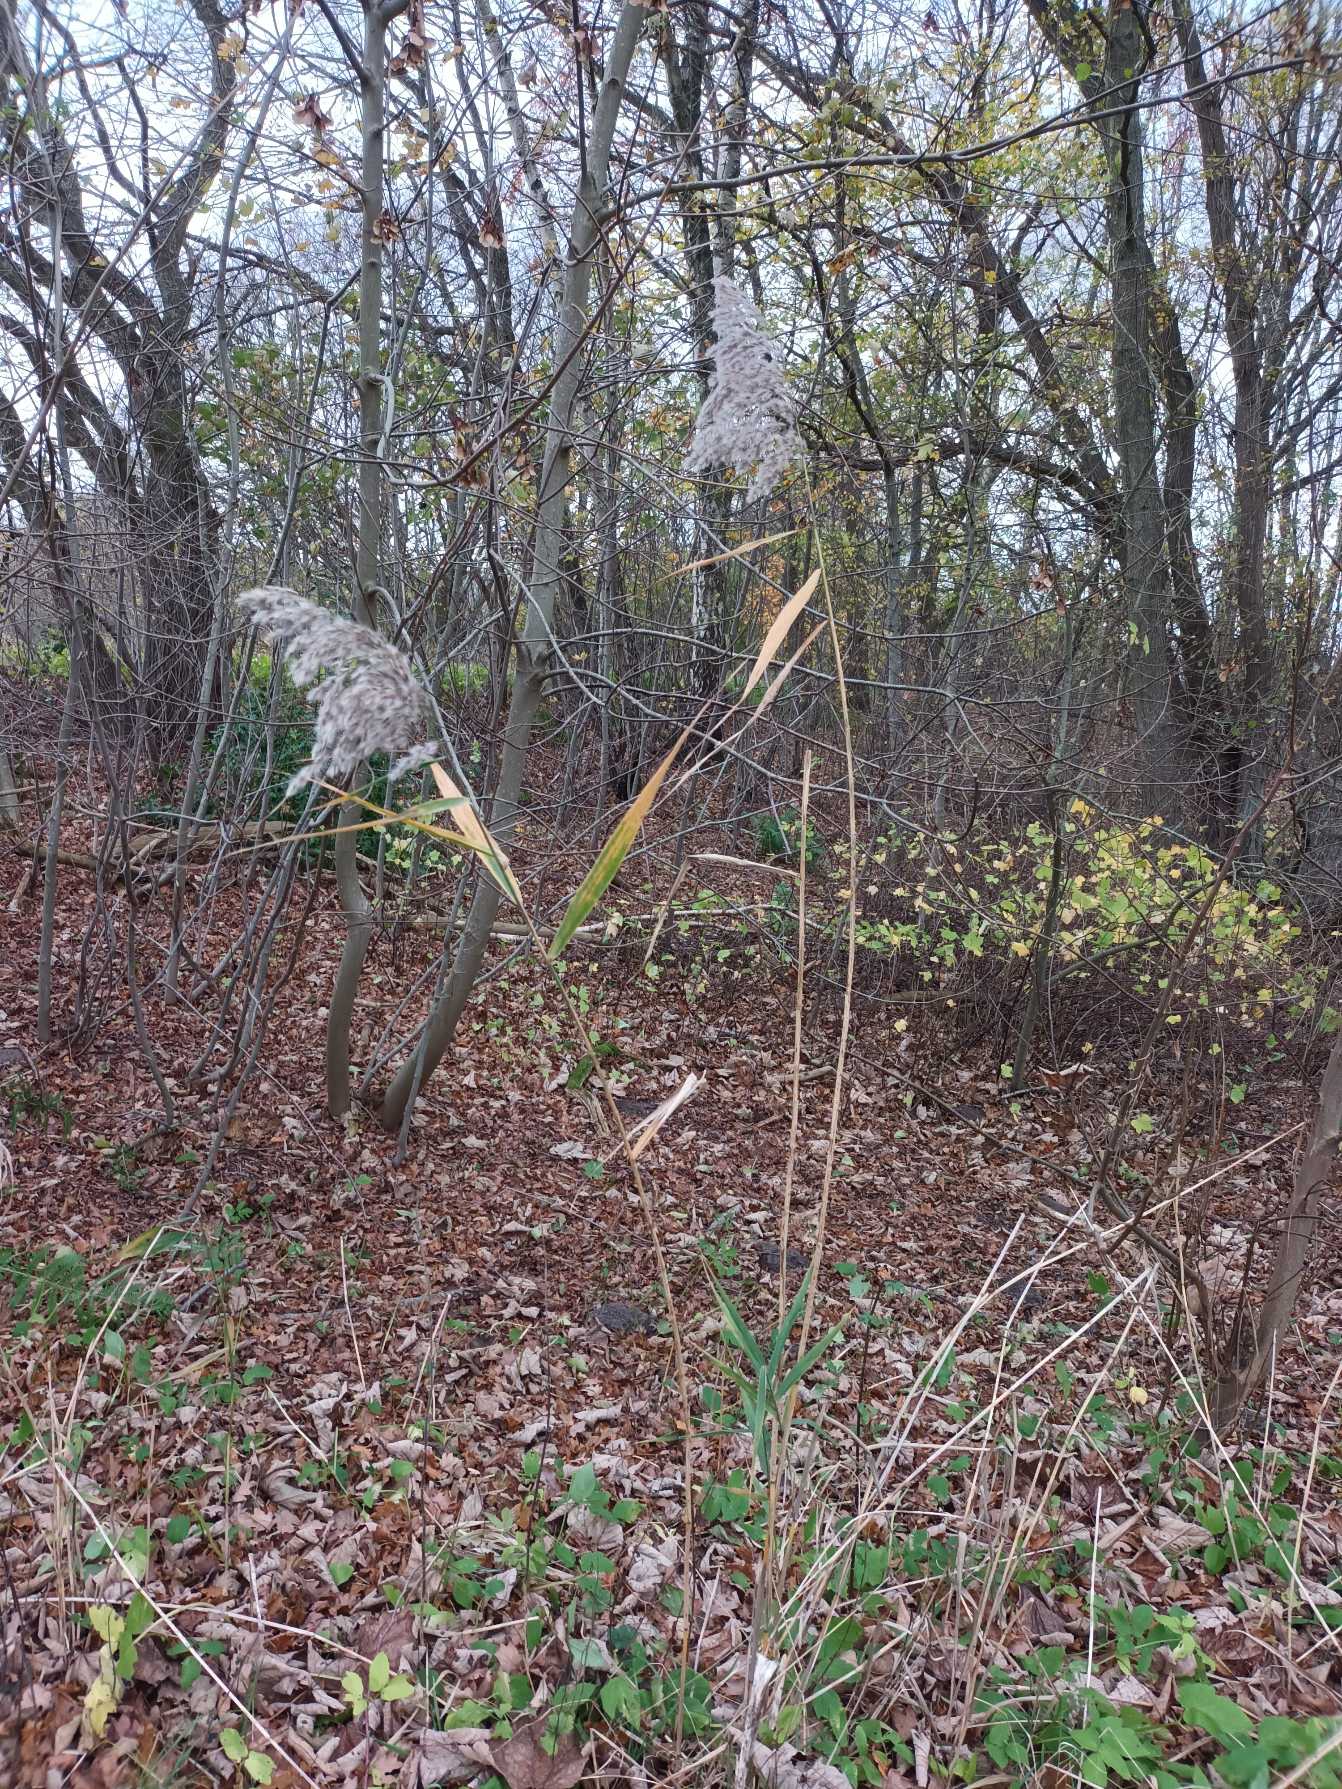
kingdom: Plantae
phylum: Tracheophyta
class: Liliopsida
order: Poales
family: Poaceae
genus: Phragmites
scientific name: Phragmites australis
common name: Tagrør
